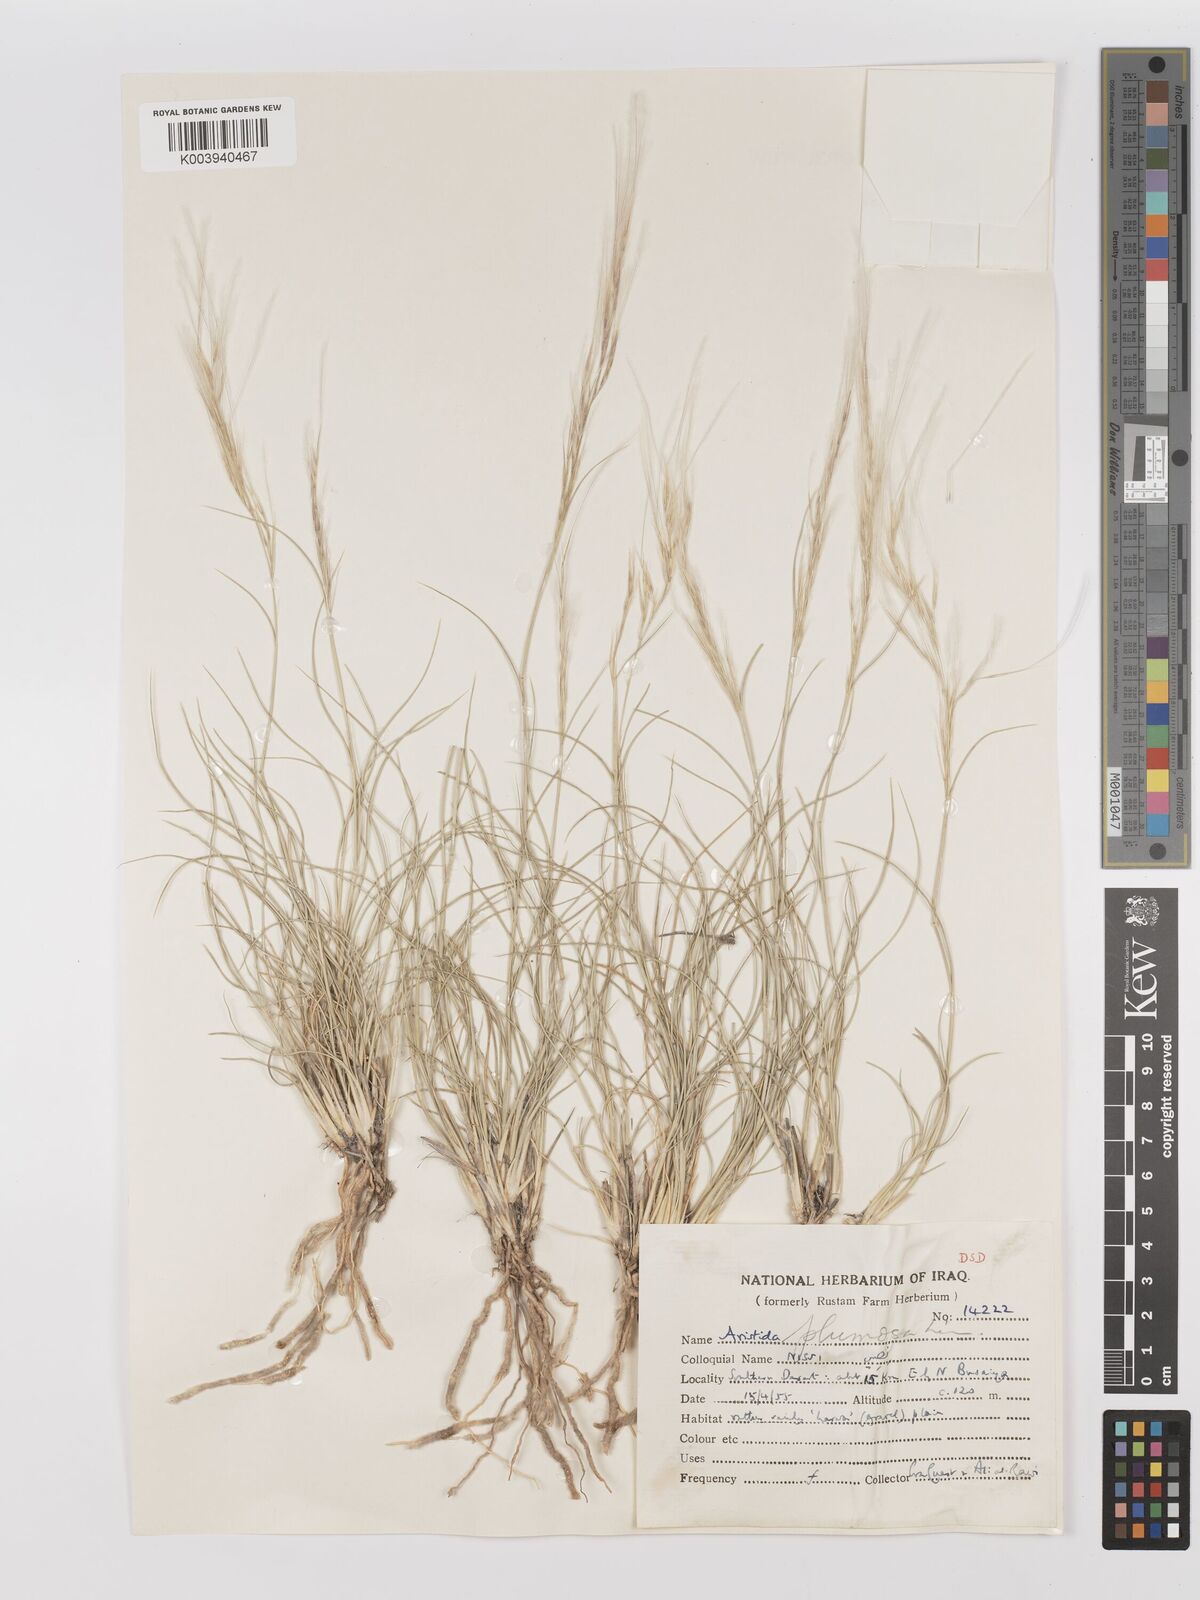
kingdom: Plantae
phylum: Tracheophyta
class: Liliopsida
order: Poales
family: Poaceae
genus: Stipagrostis
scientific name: Stipagrostis plumosa
